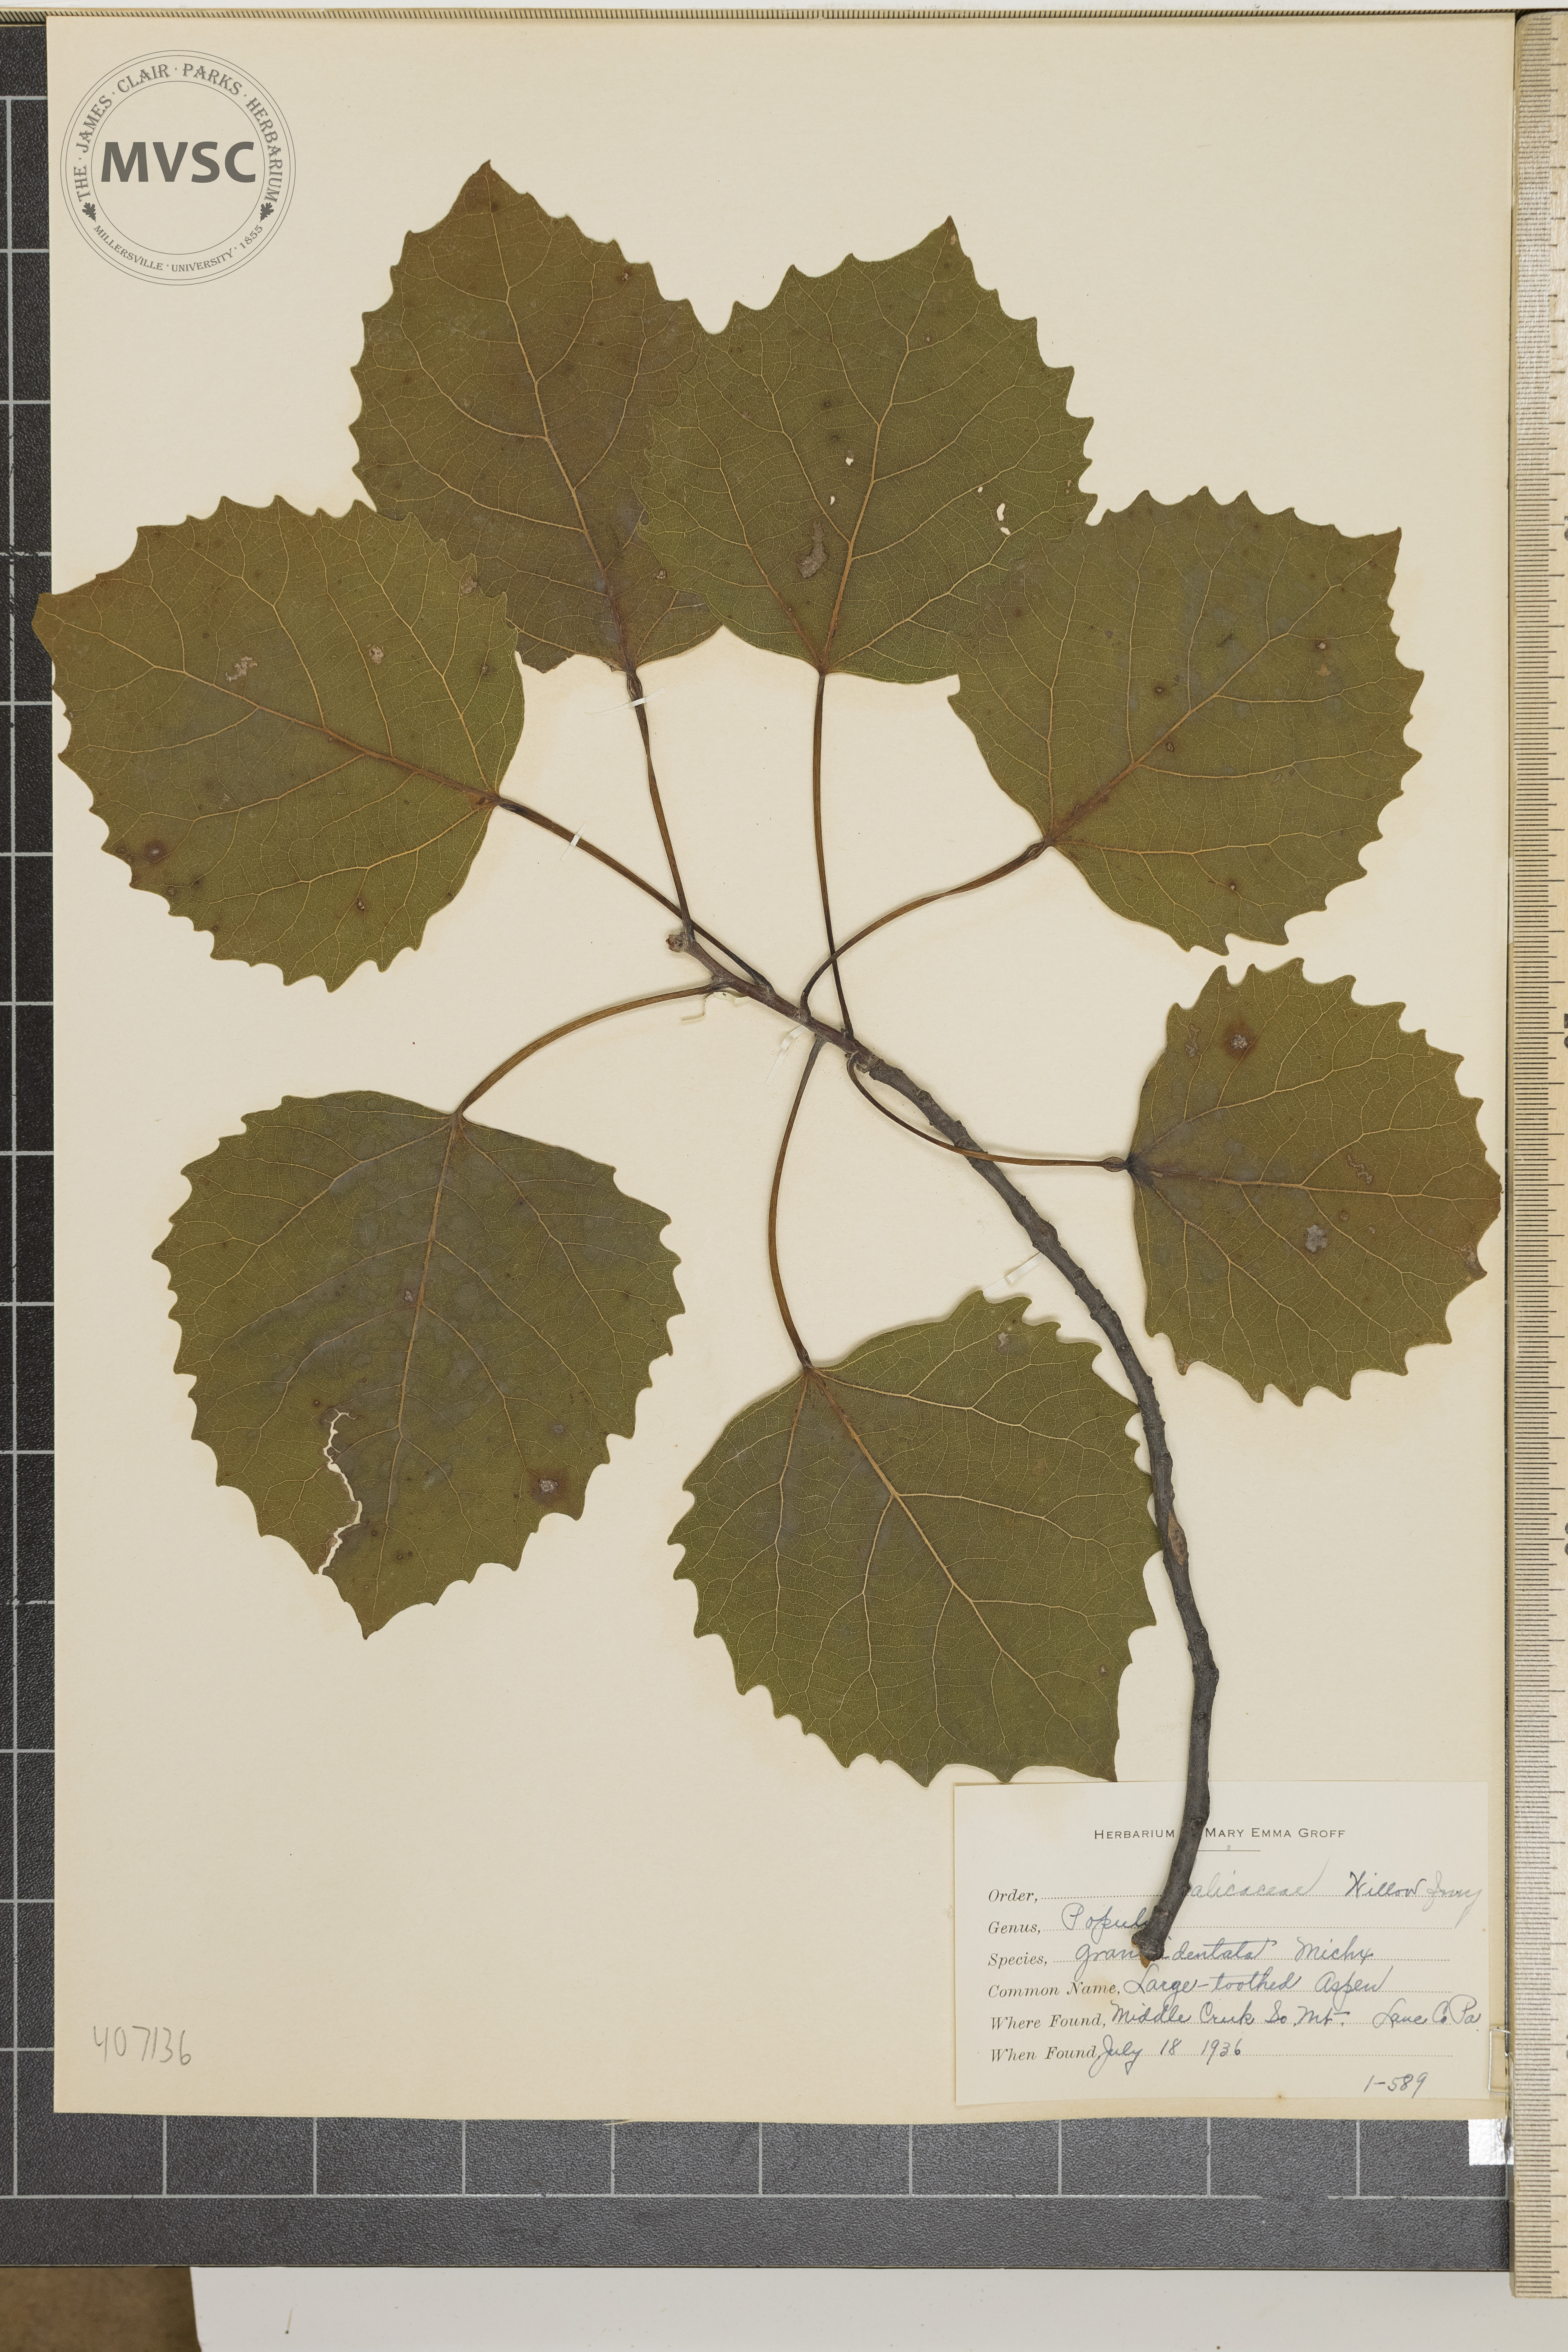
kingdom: Plantae
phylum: Tracheophyta
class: Magnoliopsida
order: Malpighiales
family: Salicaceae
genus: Populus
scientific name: Populus grandidentata
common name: Large-toothed Aspen
